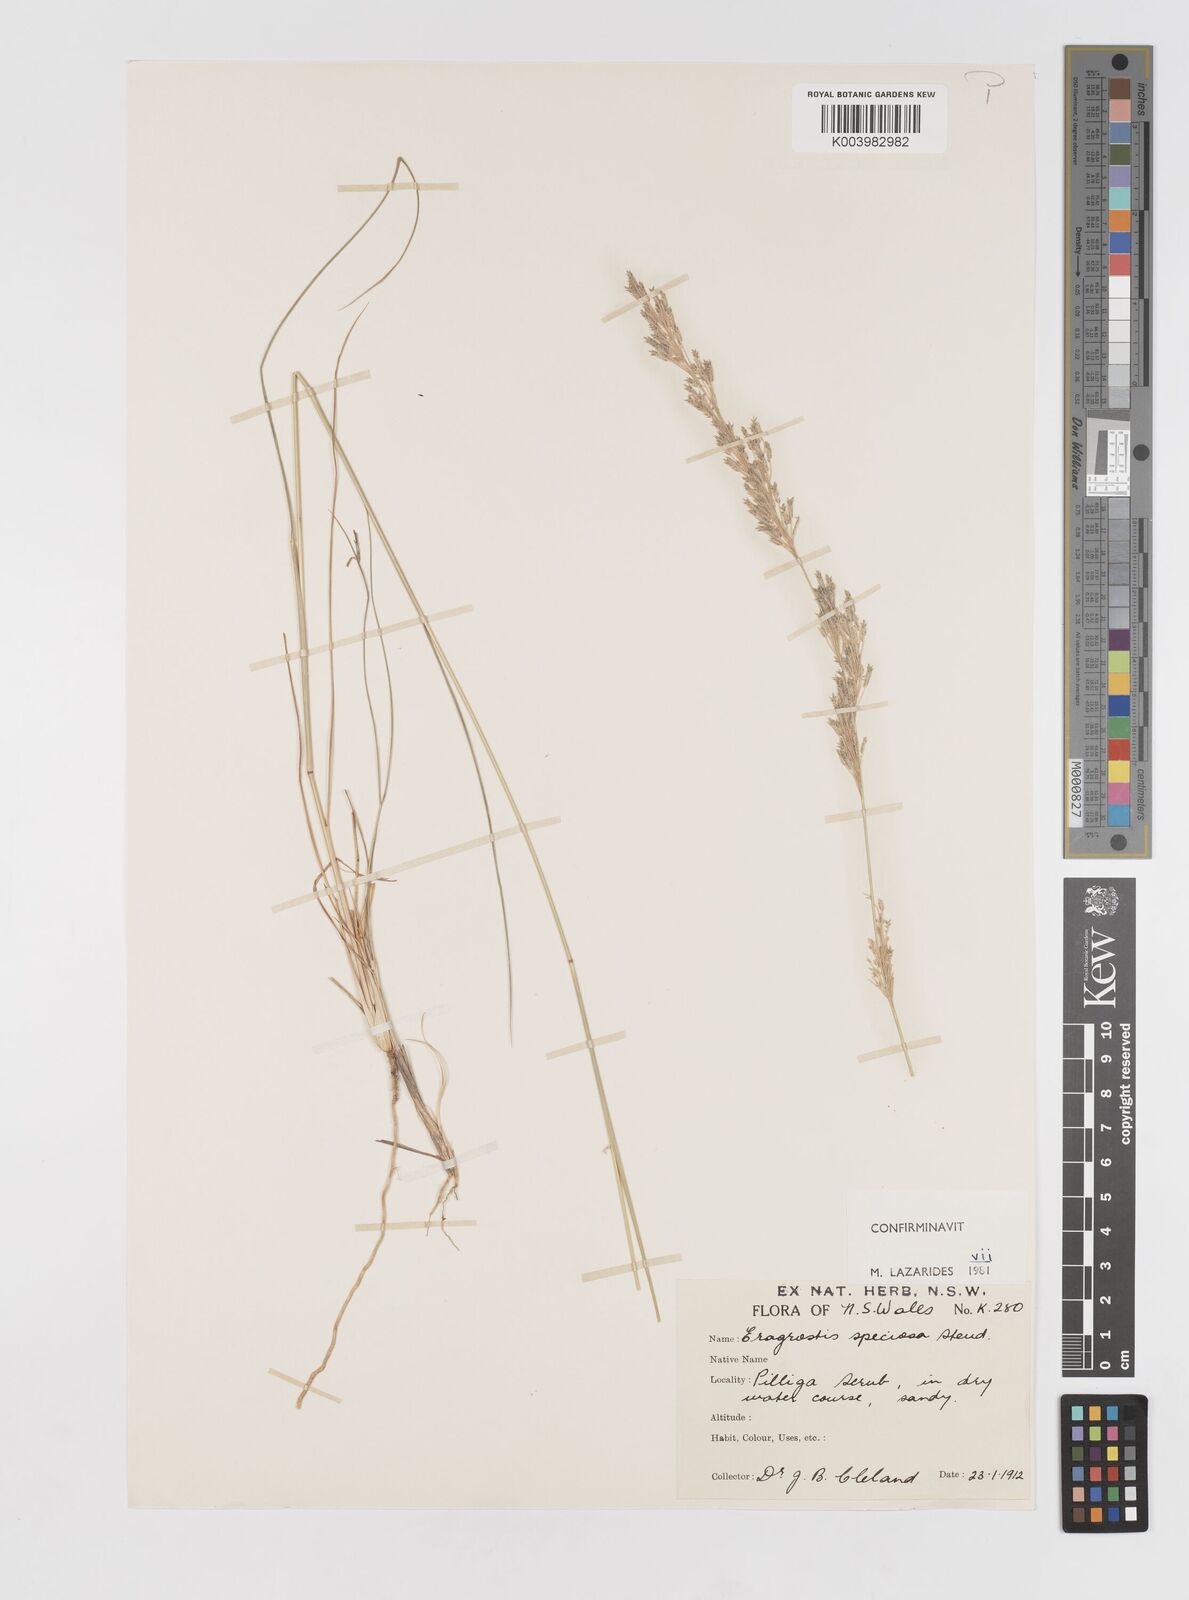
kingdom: Plantae
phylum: Tracheophyta
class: Liliopsida
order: Poales
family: Poaceae
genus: Eragrostis
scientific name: Eragrostis speciosa
